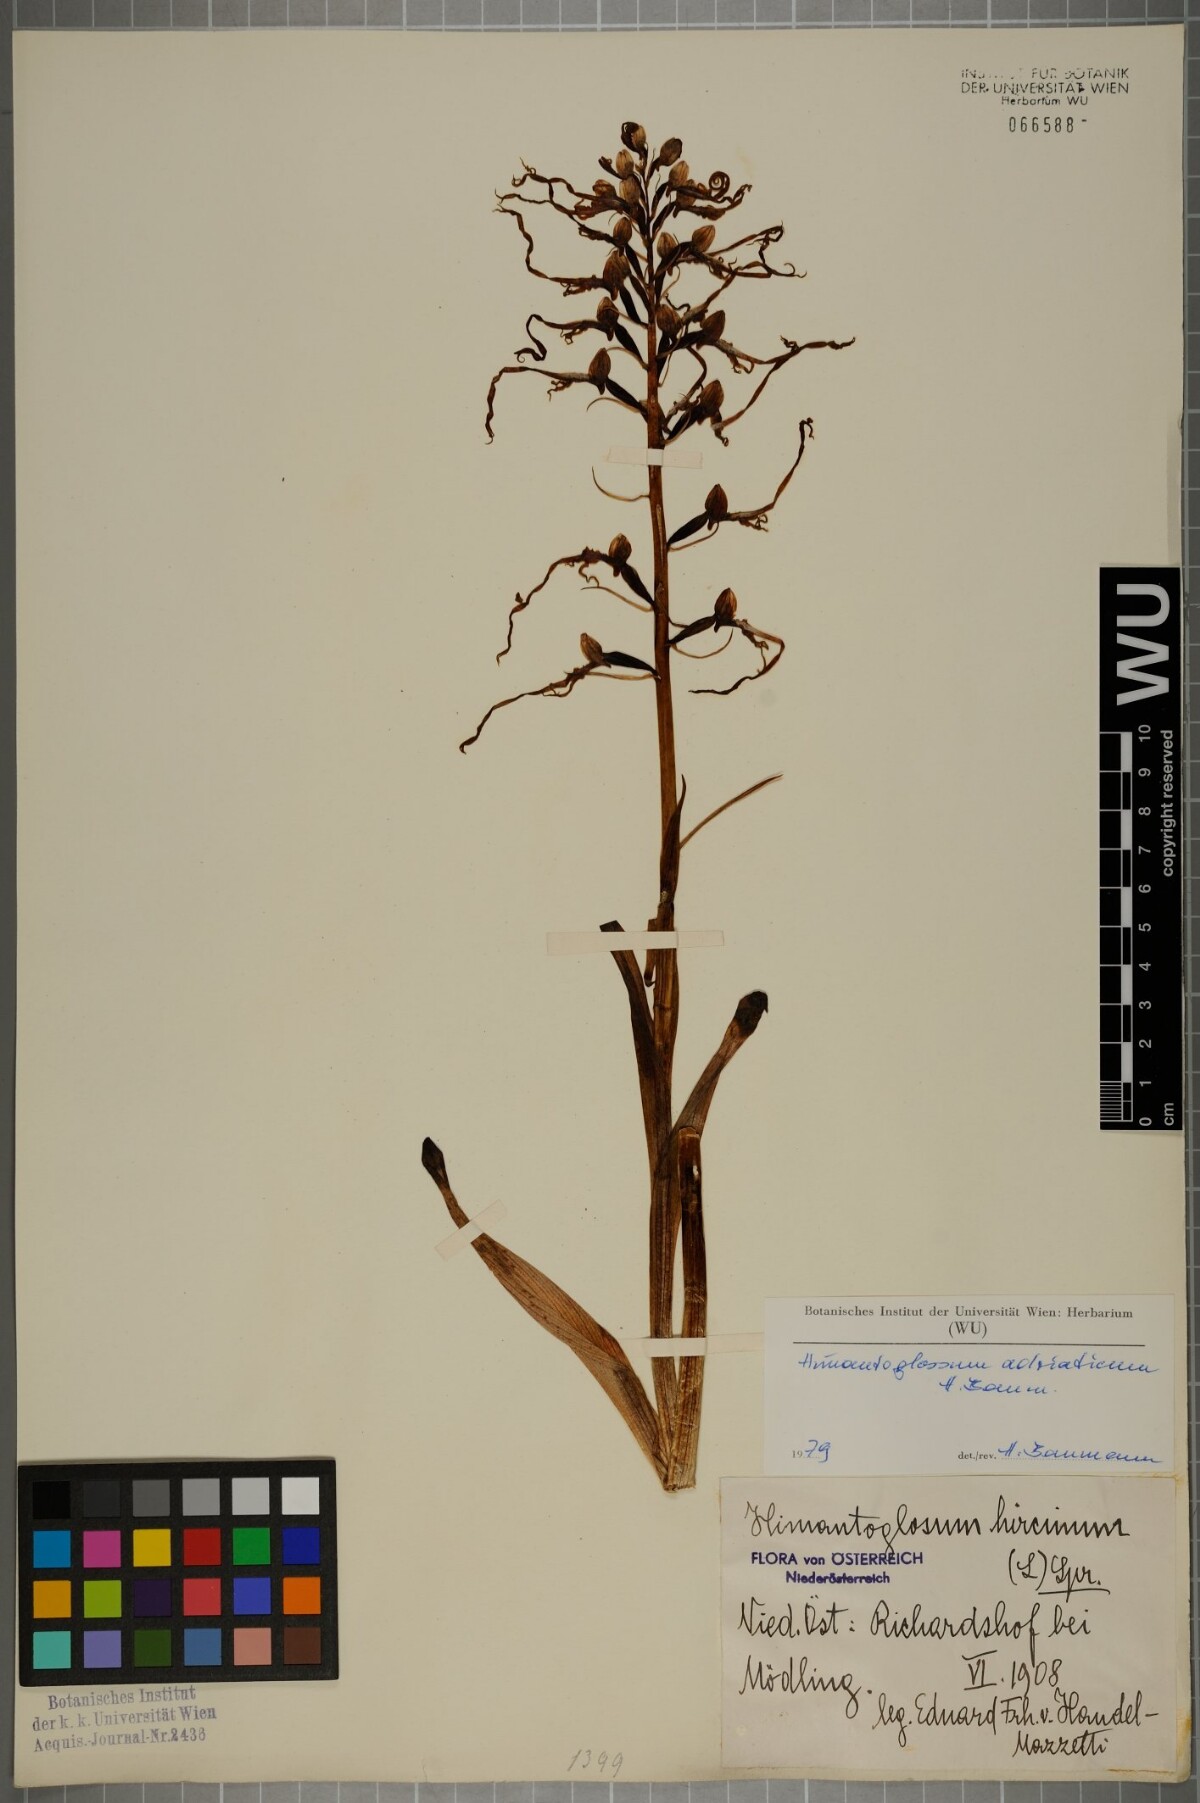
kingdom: Plantae
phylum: Tracheophyta
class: Liliopsida
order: Asparagales
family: Orchidaceae
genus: Himantoglossum
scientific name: Himantoglossum adriaticum
